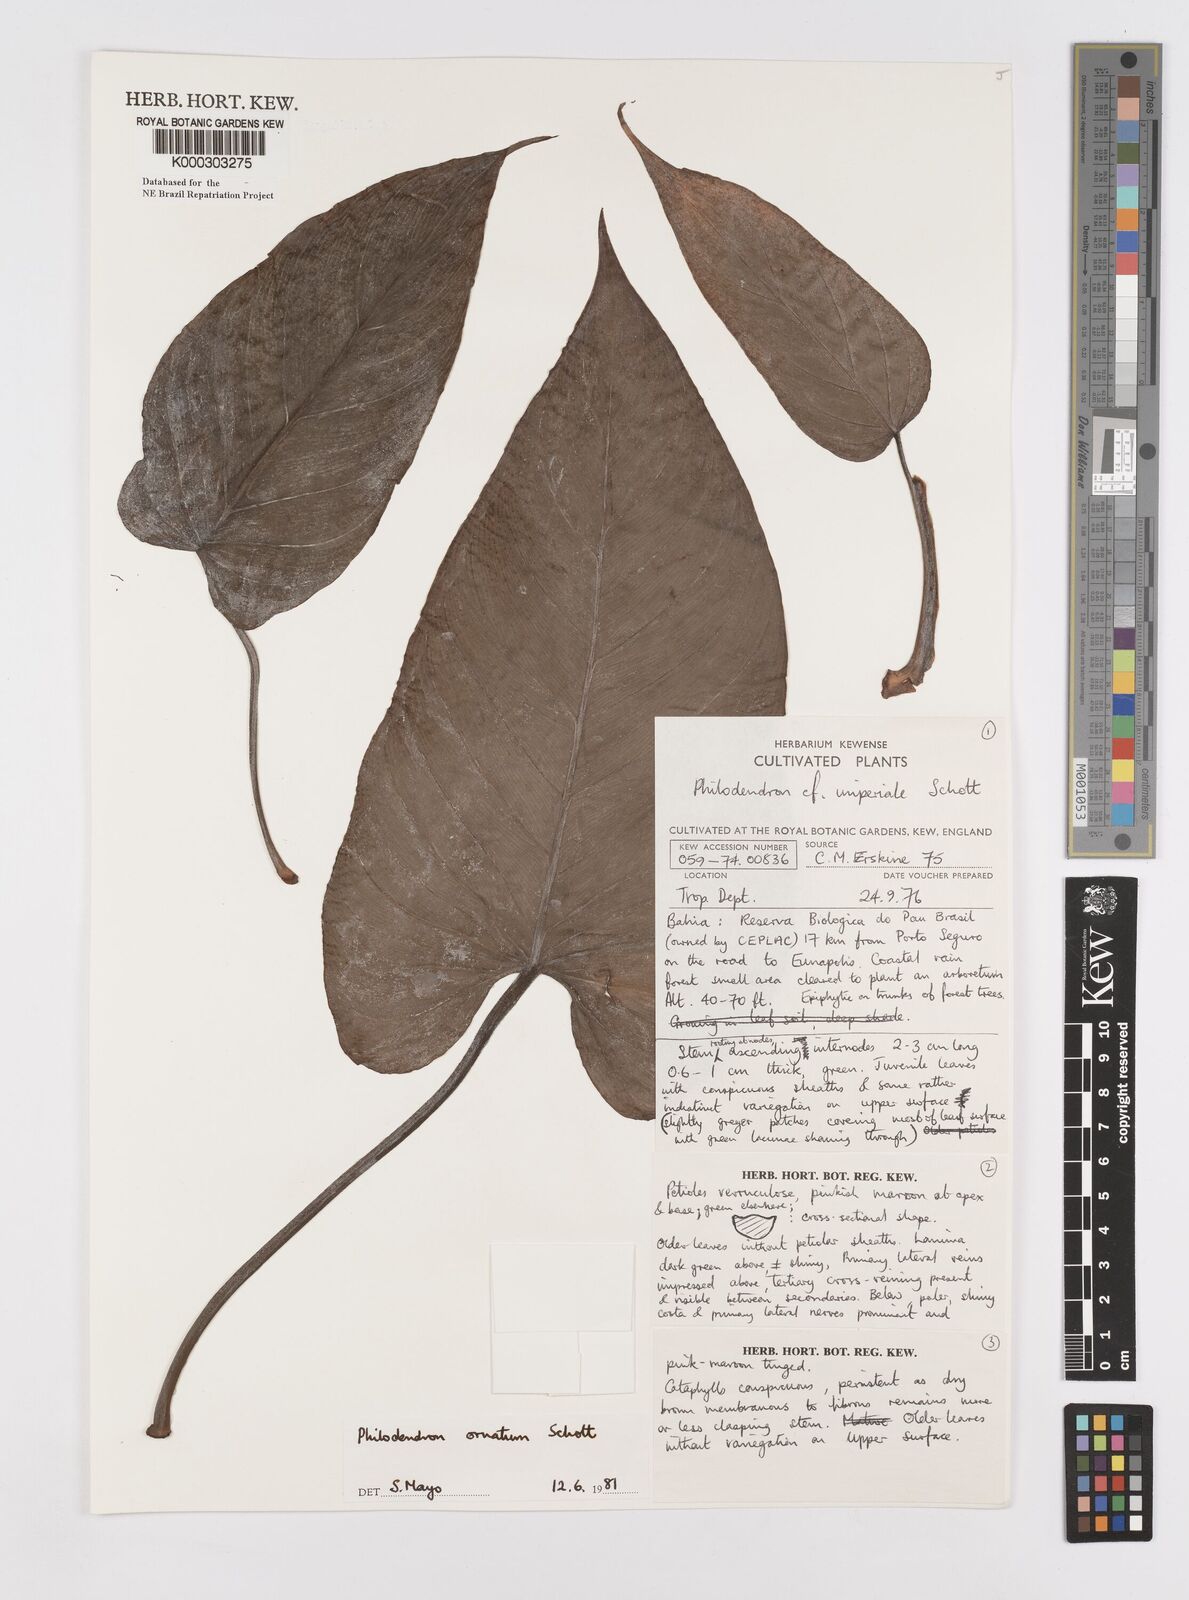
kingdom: Plantae
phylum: Tracheophyta
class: Liliopsida
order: Alismatales
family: Araceae
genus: Philodendron
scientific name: Philodendron ornatum
